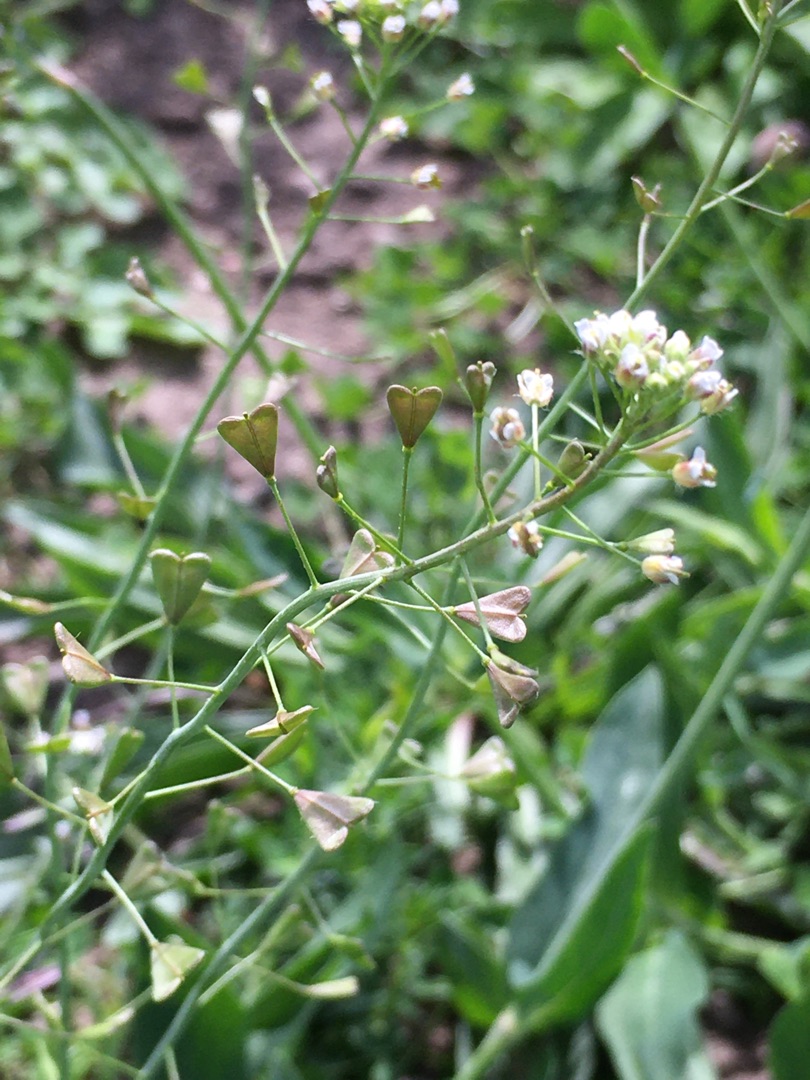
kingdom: Plantae
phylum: Tracheophyta
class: Magnoliopsida
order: Brassicales
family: Brassicaceae
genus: Capsella
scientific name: Capsella bursa-pastoris
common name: Hyrdetaske
